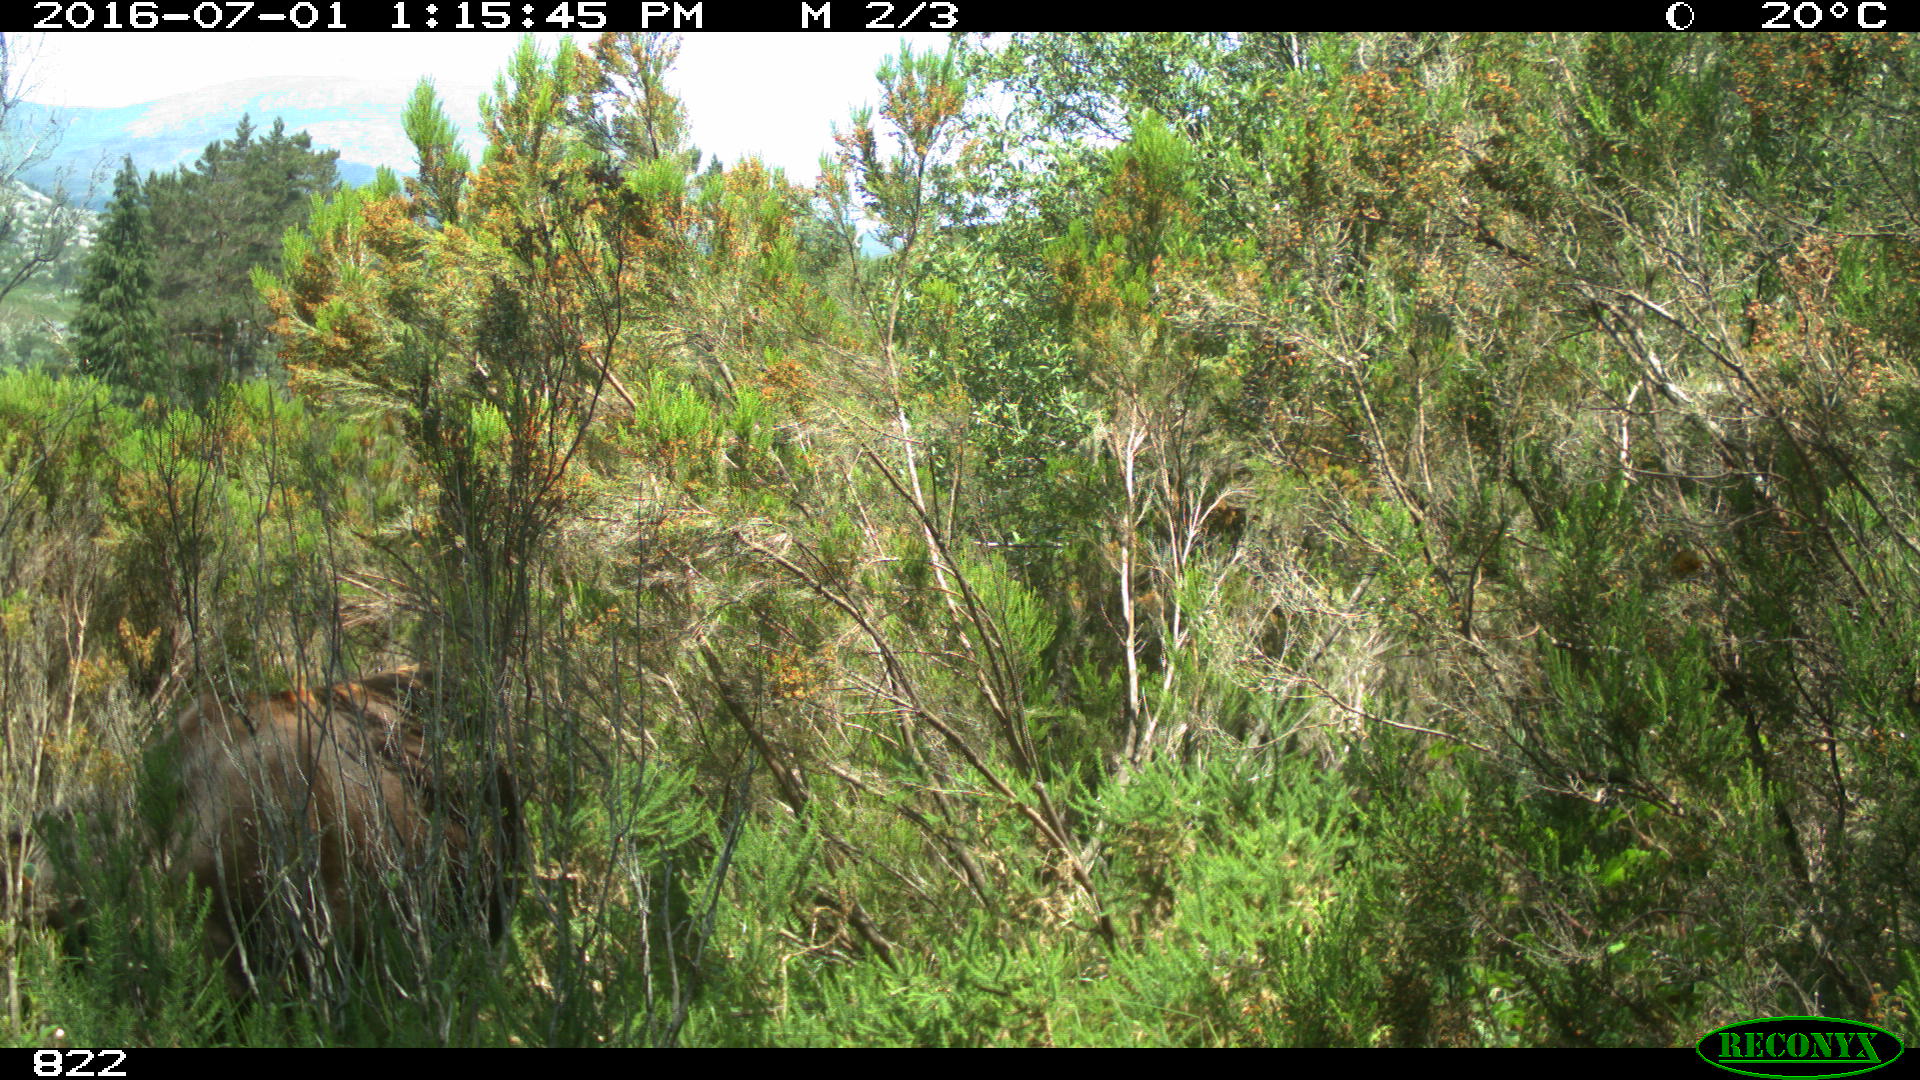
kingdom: Animalia
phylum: Chordata
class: Mammalia
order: Artiodactyla
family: Bovidae
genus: Bos
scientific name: Bos taurus
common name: Domesticated cattle
